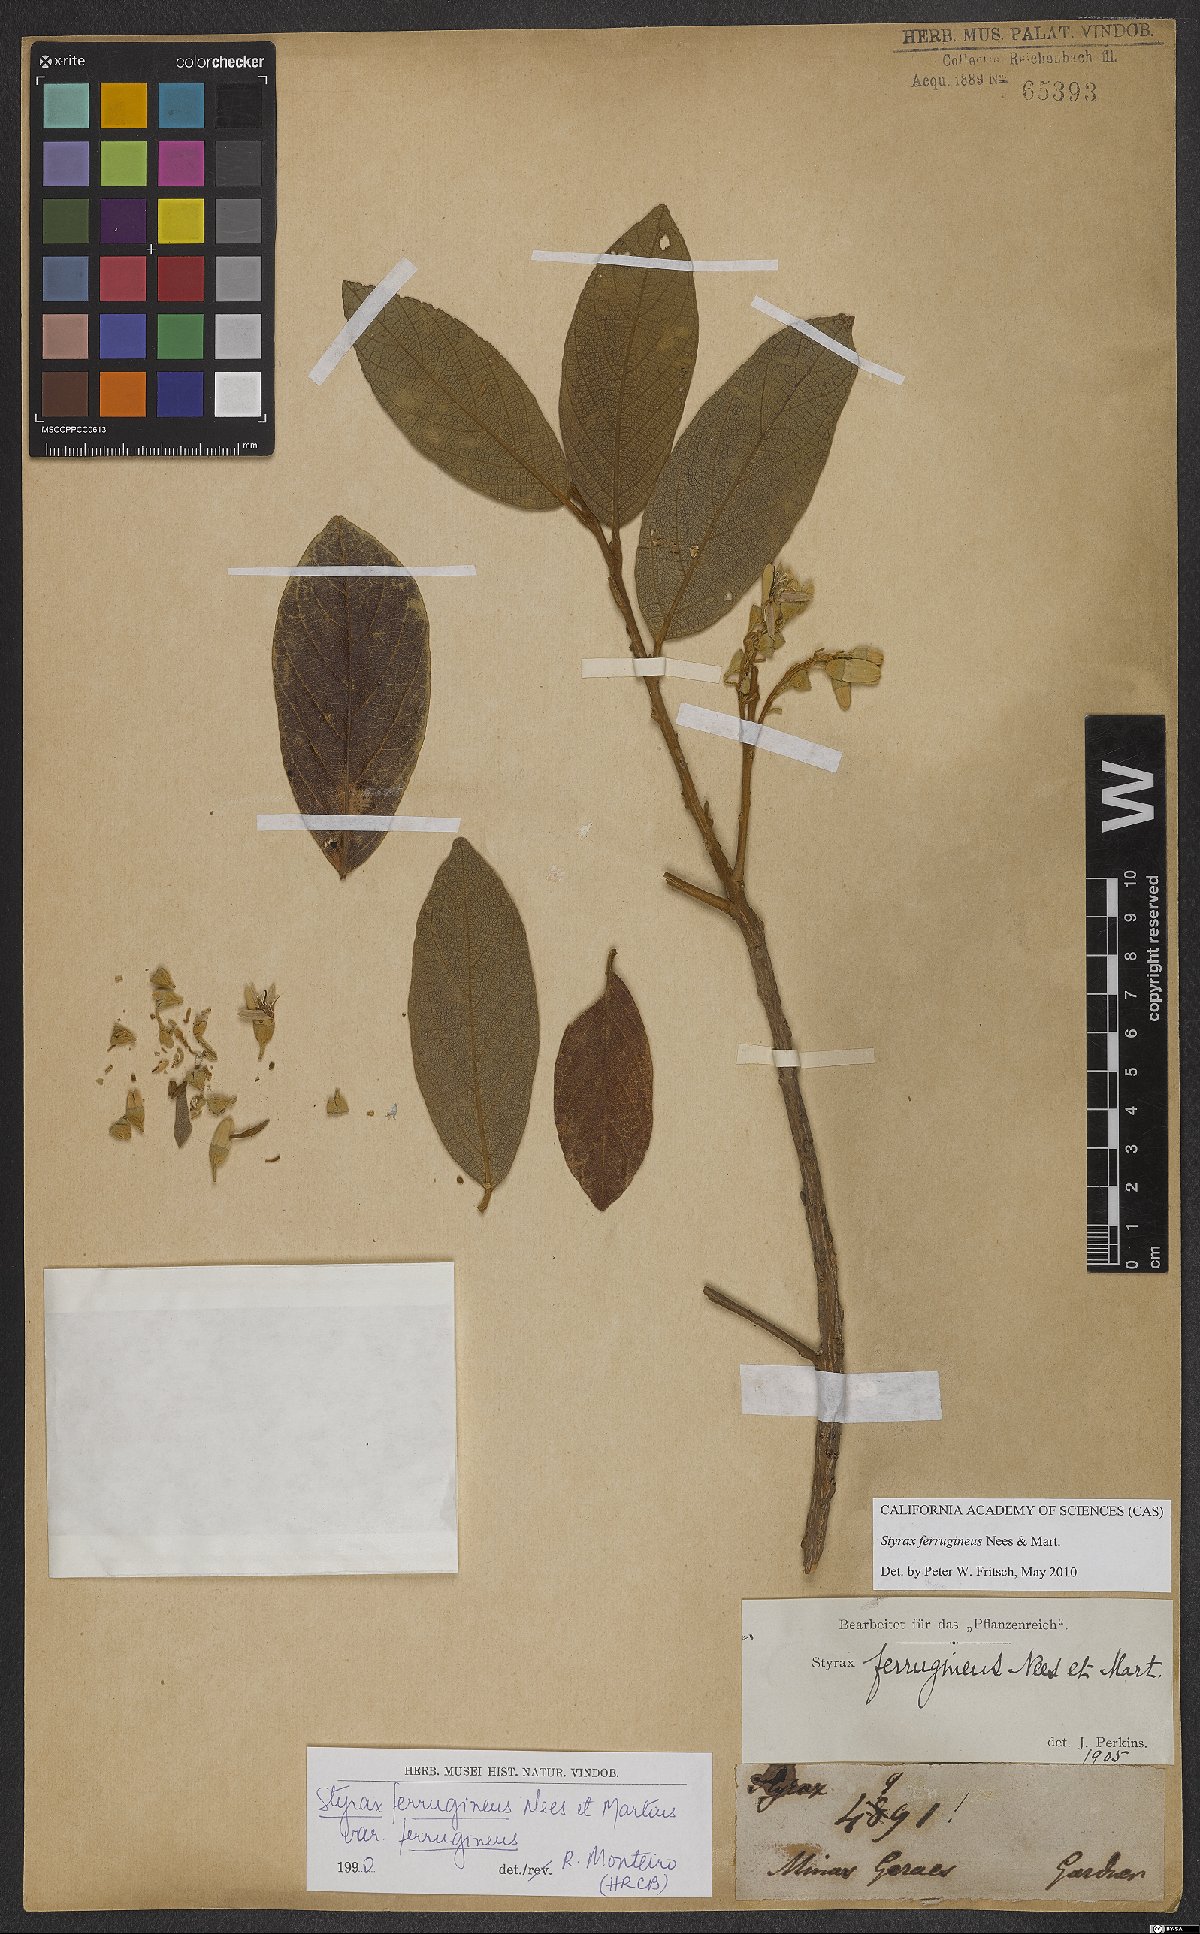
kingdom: Plantae
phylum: Tracheophyta
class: Magnoliopsida
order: Ericales
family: Styracaceae
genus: Styrax
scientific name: Styrax ferrugineus
